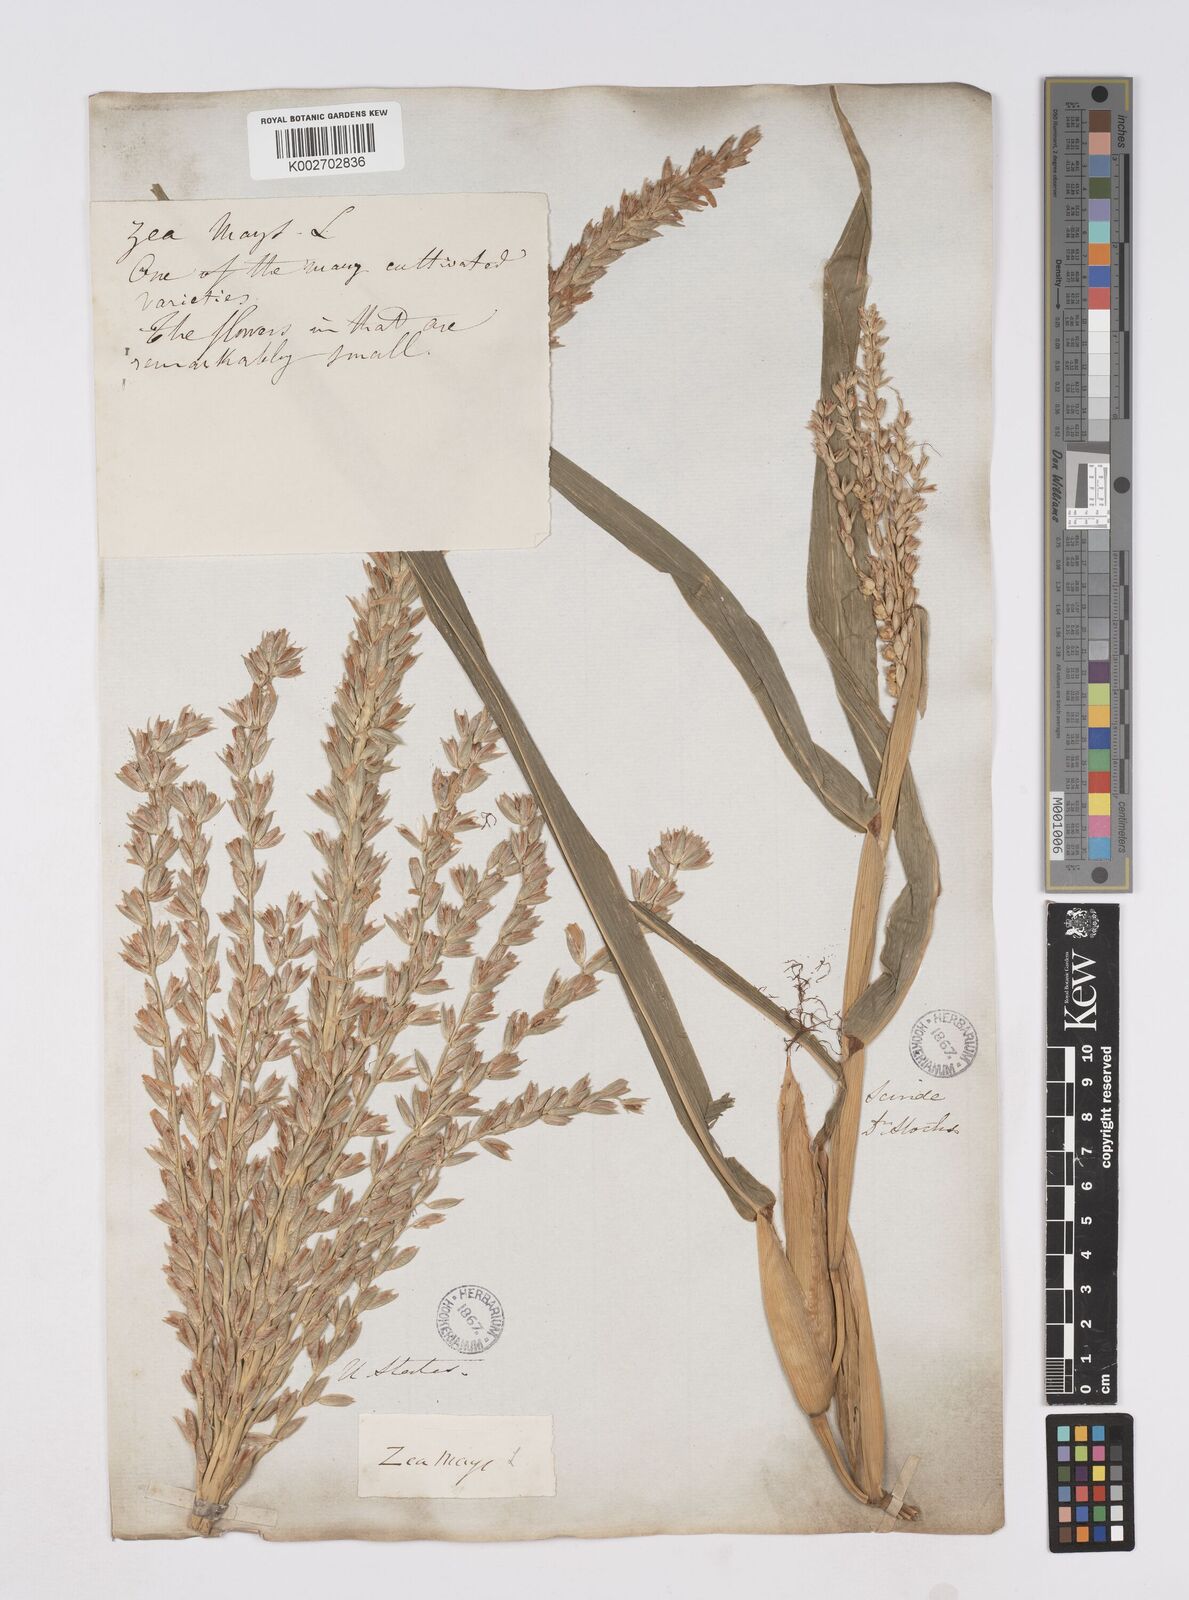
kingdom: Plantae
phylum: Tracheophyta
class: Liliopsida
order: Poales
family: Poaceae
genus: Zea
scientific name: Zea mays
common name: Maize
